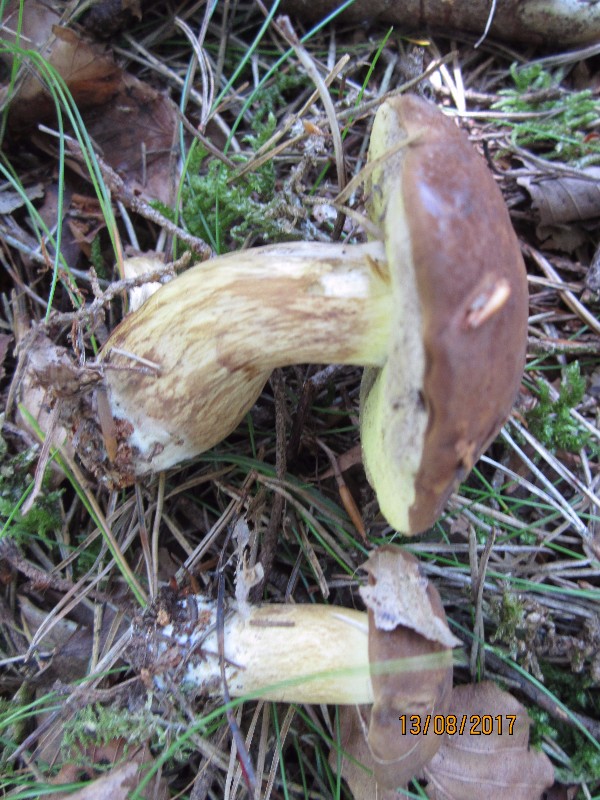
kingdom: Fungi
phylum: Basidiomycota
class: Agaricomycetes
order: Boletales
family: Boletaceae
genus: Imleria
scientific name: Imleria badia
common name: brunstokket rørhat
